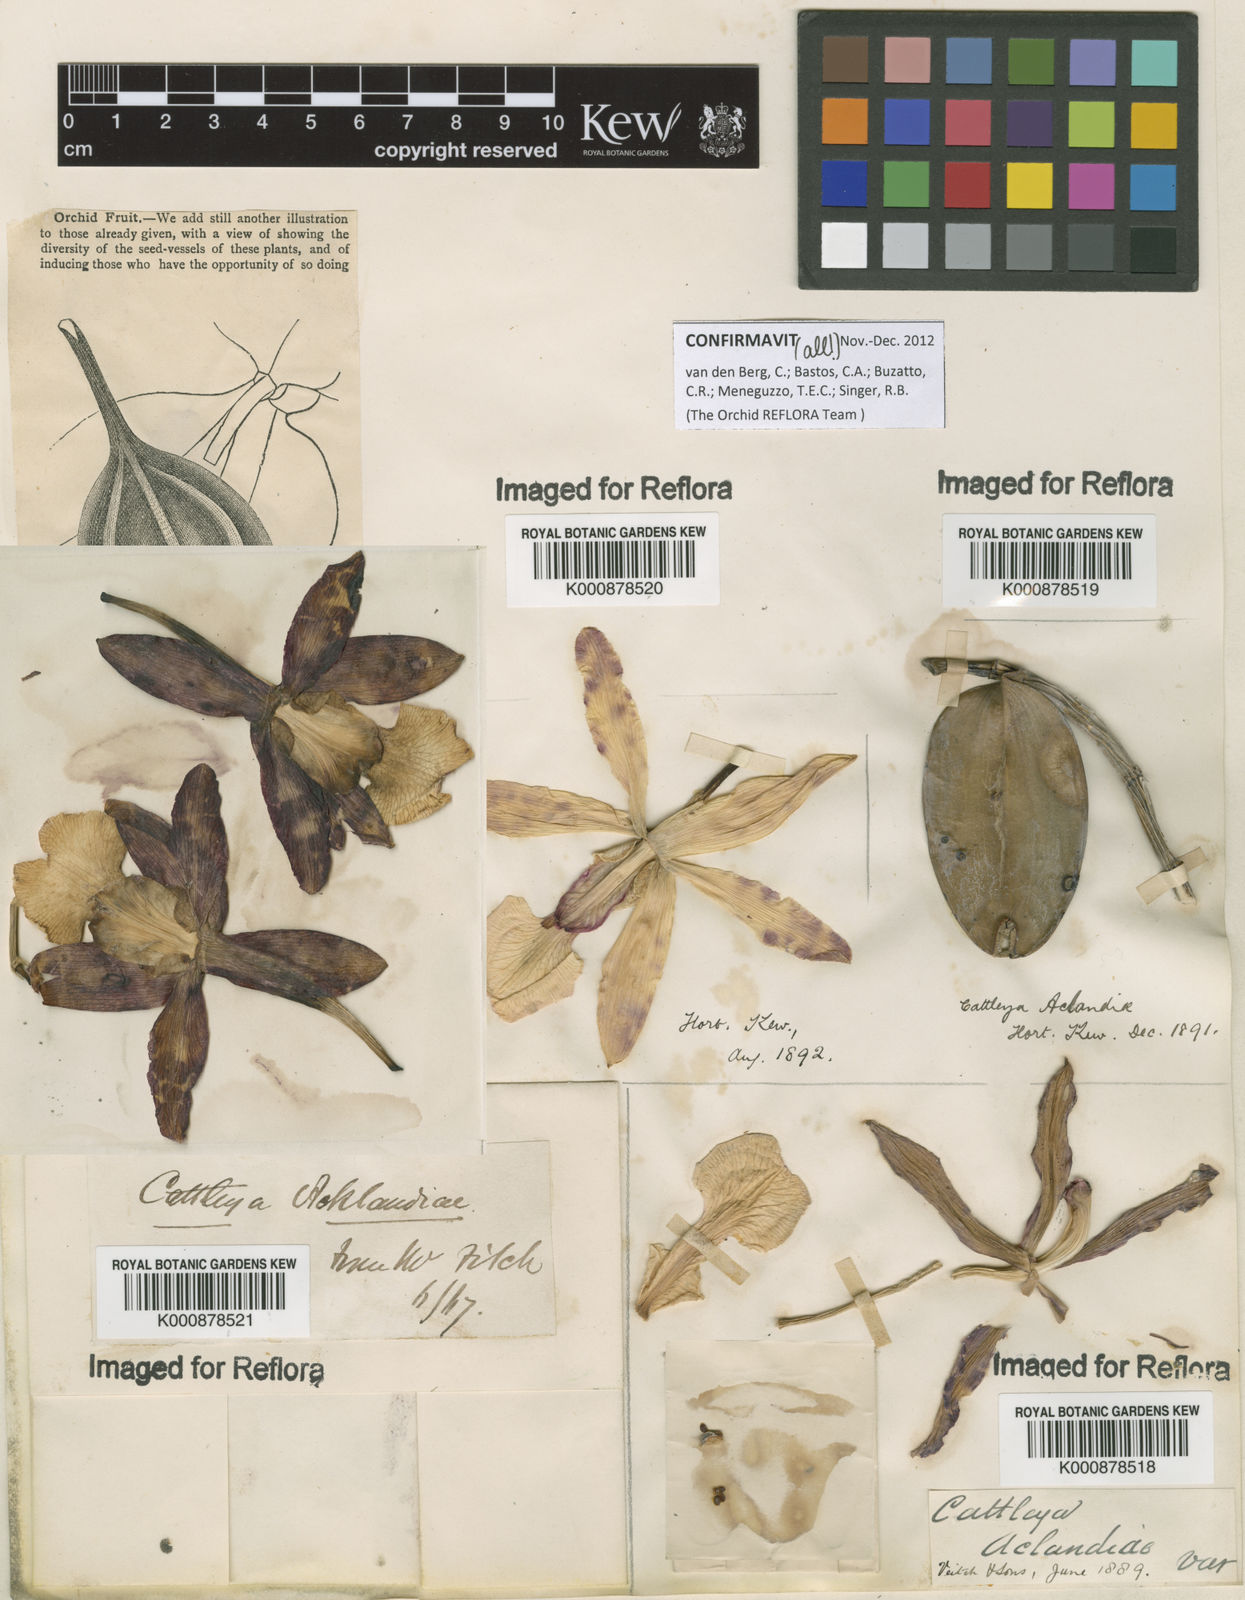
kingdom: Plantae
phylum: Tracheophyta
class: Liliopsida
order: Asparagales
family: Orchidaceae
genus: Cattleya
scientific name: Cattleya aclandiae
